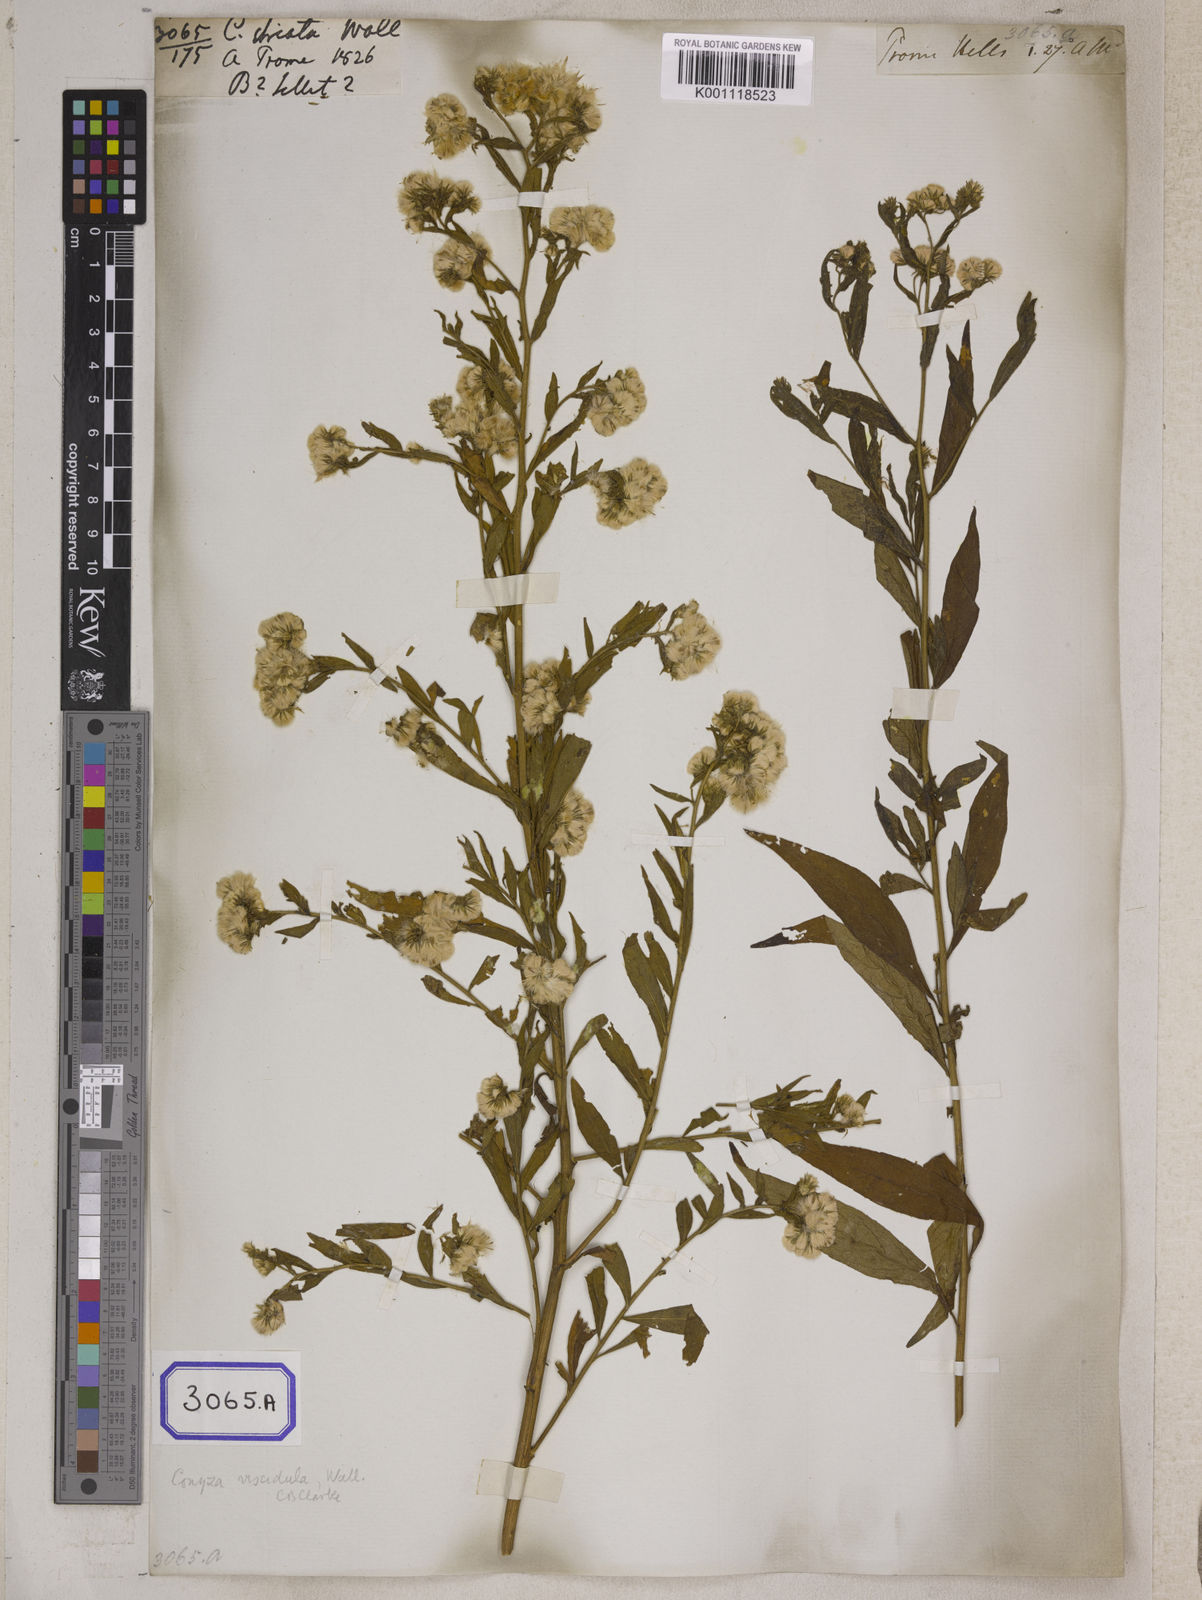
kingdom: Plantae
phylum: Tracheophyta
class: Magnoliopsida
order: Asterales
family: Asteraceae
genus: Eschenbachia
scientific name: Eschenbachia leucantha
